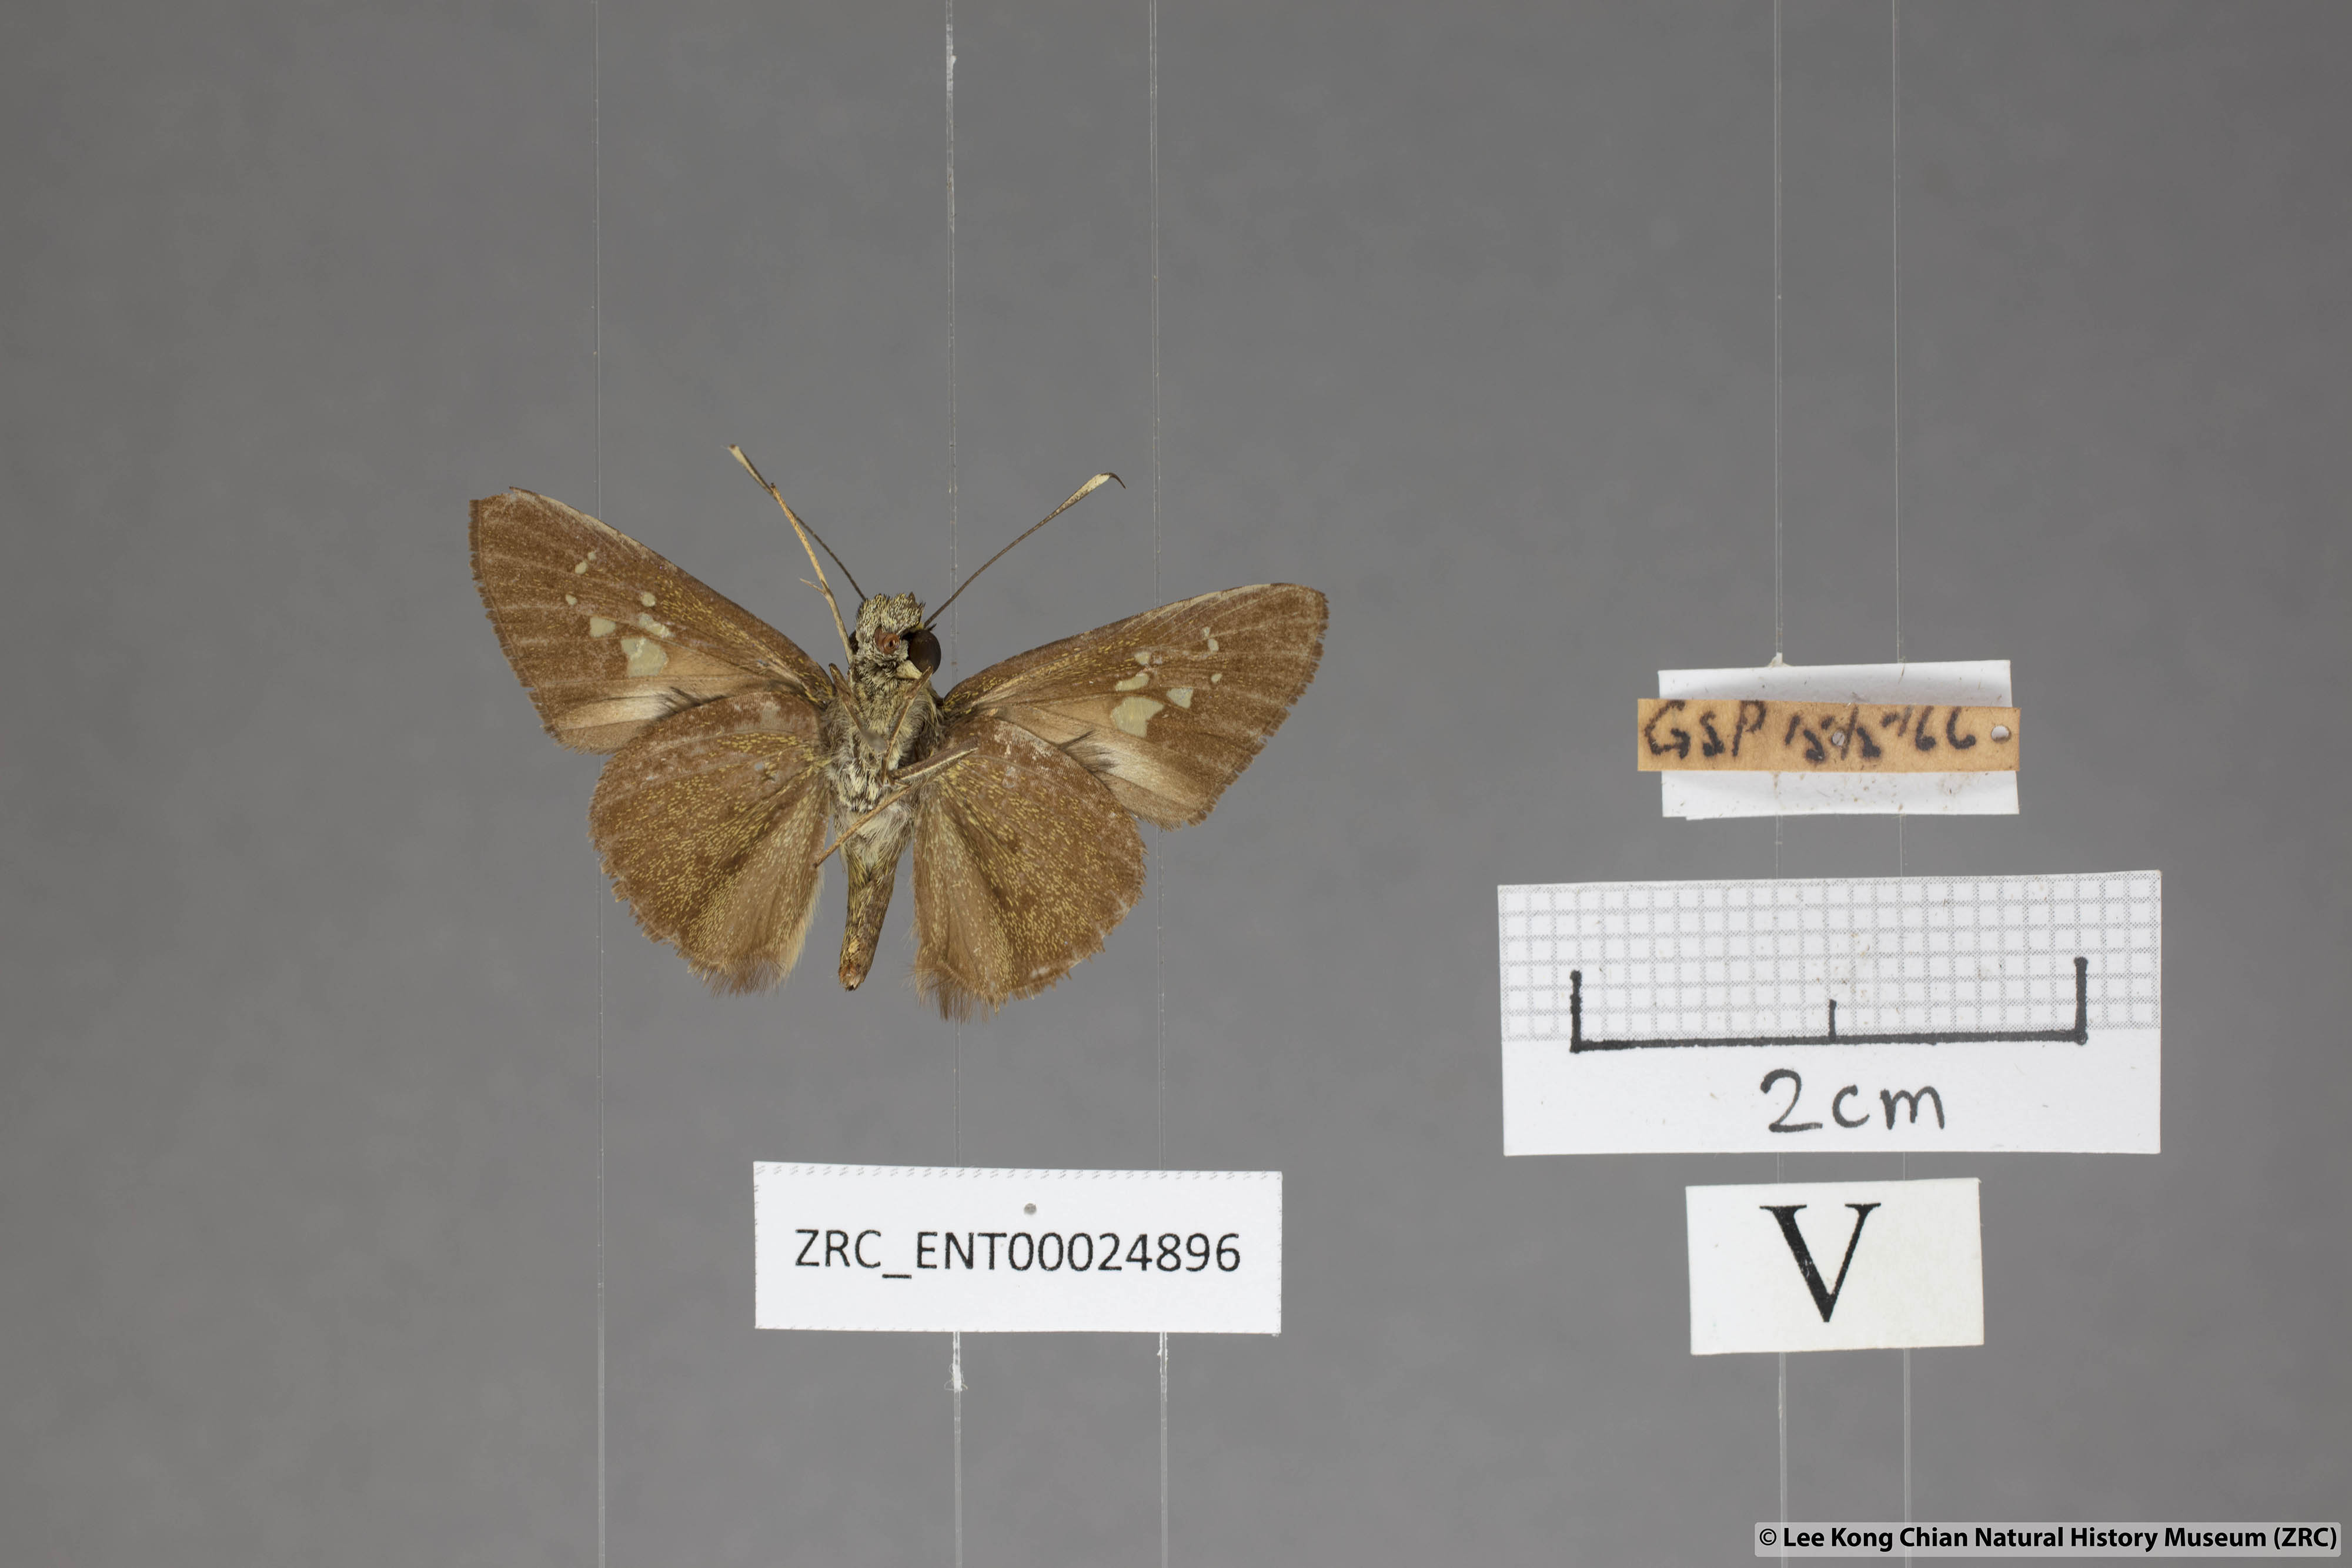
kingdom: Animalia
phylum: Arthropoda
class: Insecta
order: Lepidoptera
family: Hesperiidae
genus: Isma
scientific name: Isma
